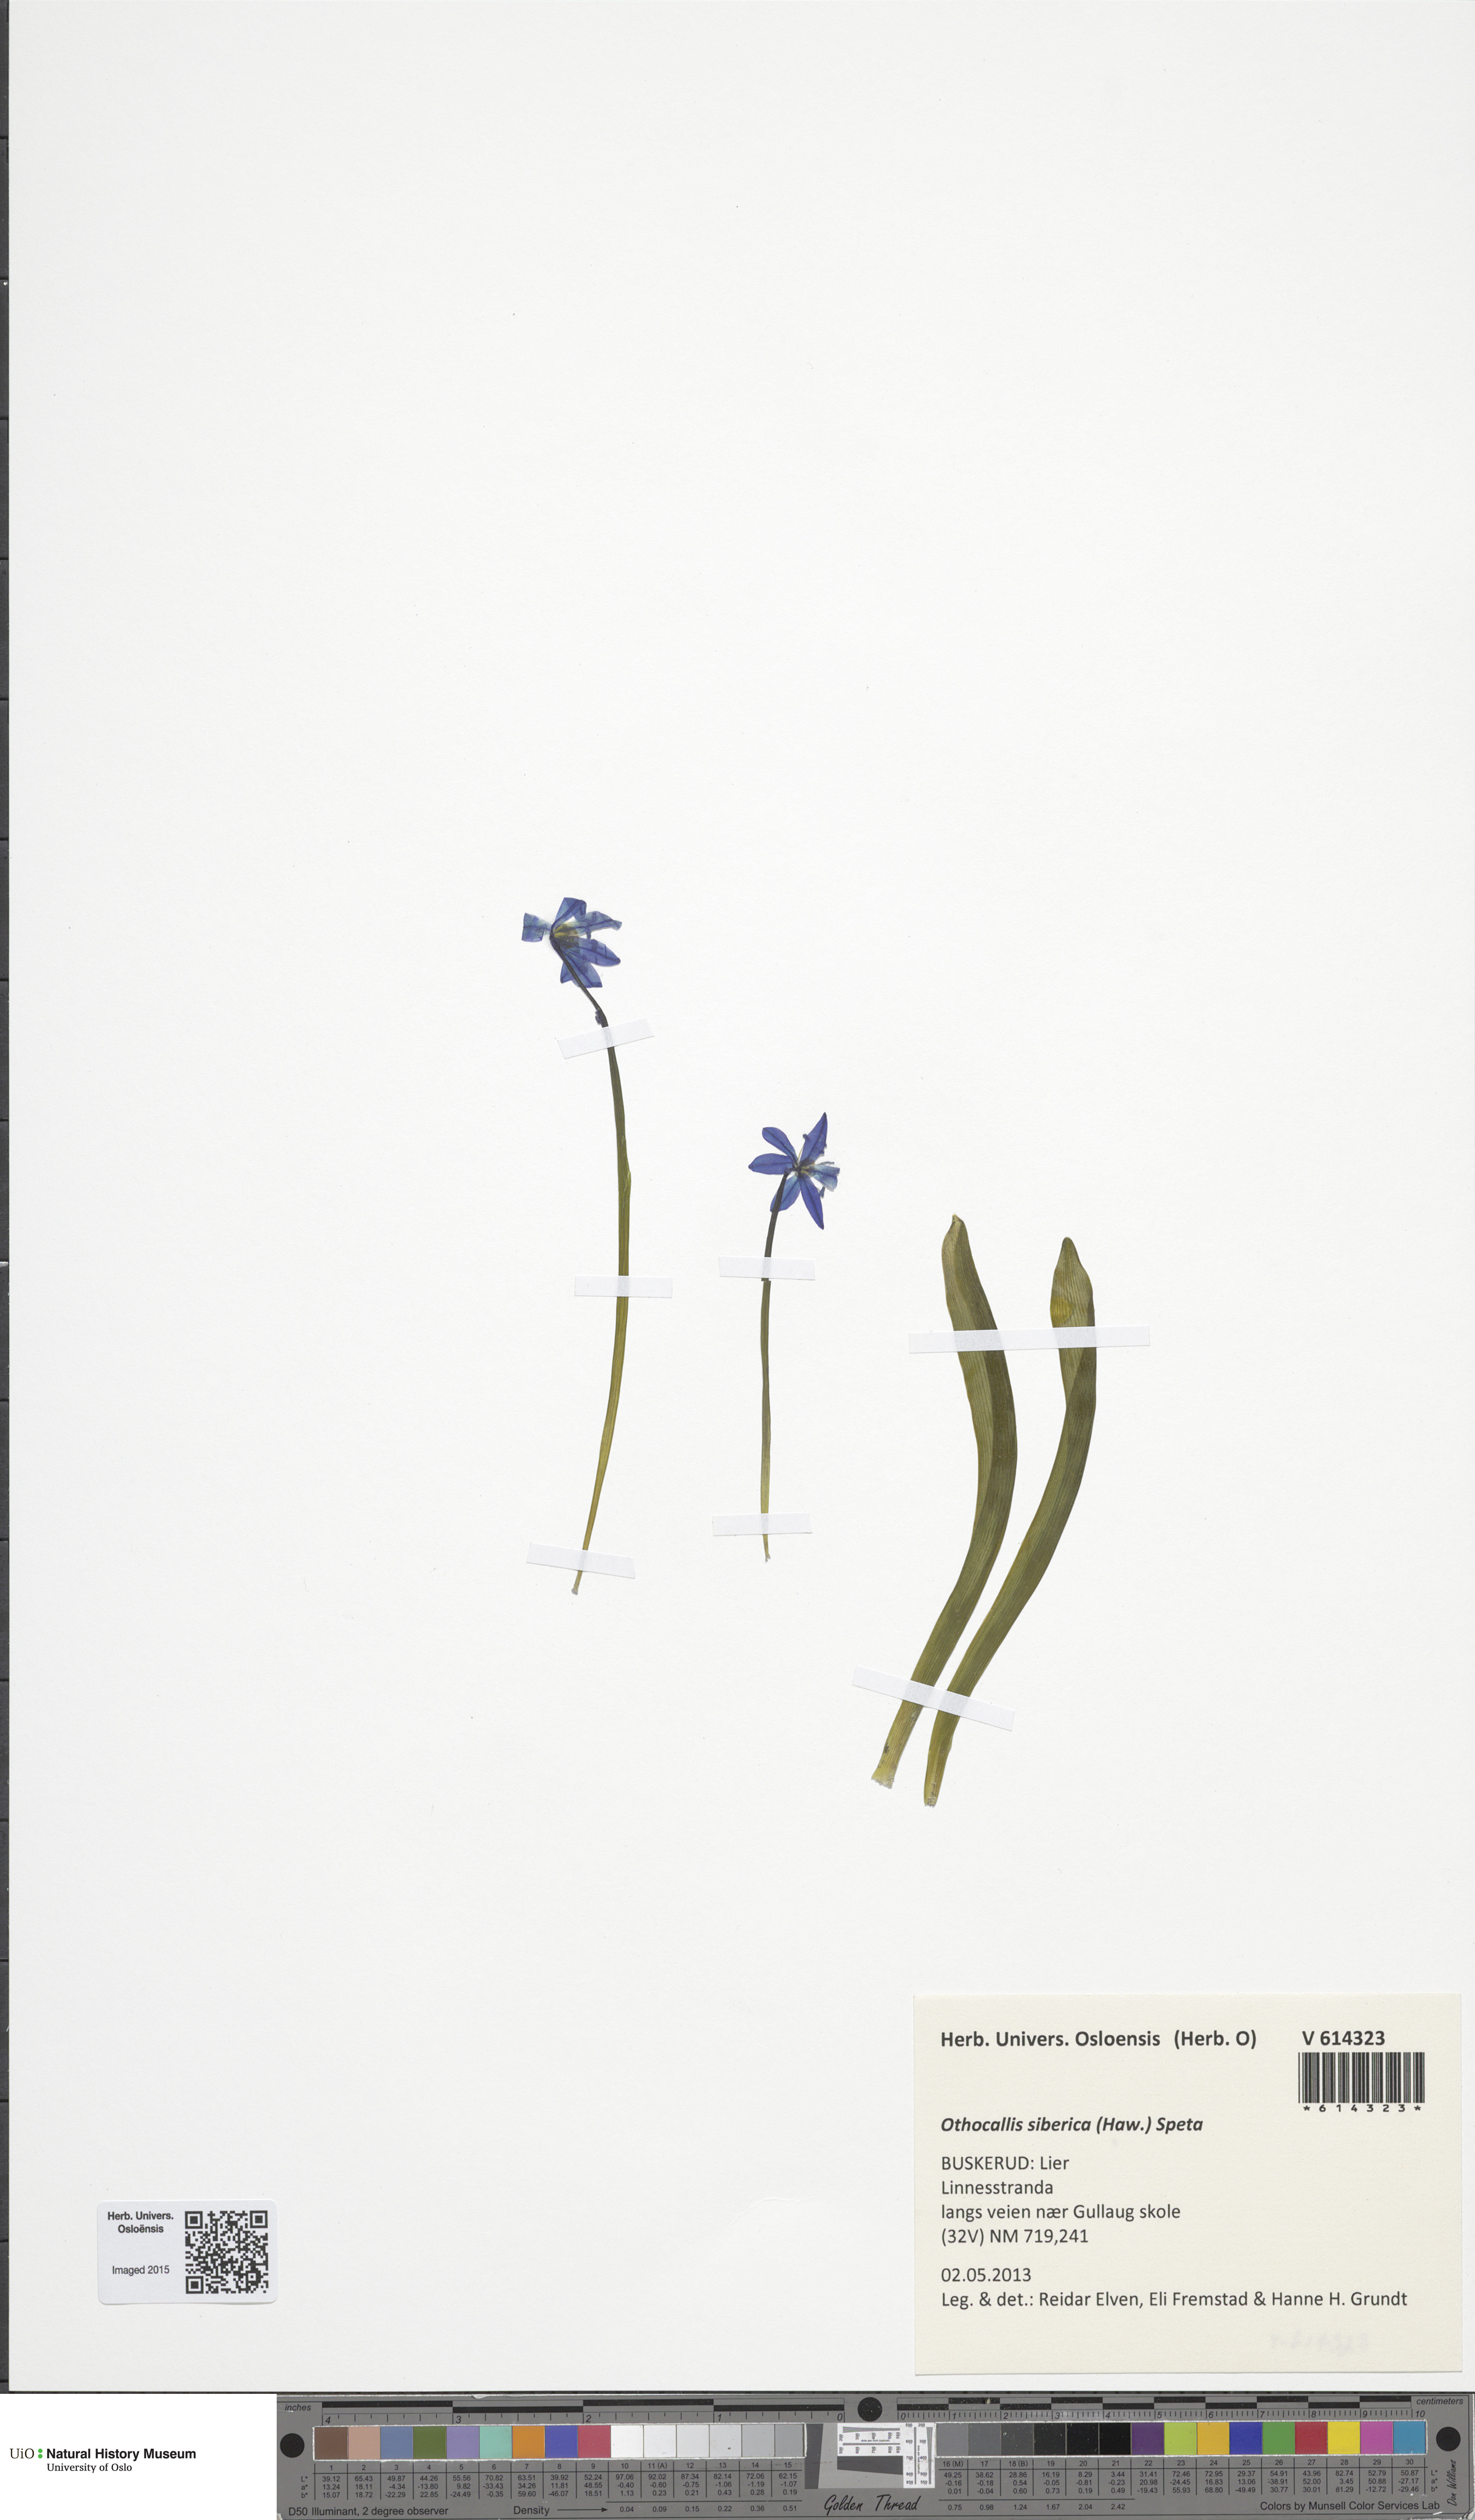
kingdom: Plantae
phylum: Tracheophyta
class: Liliopsida
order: Asparagales
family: Asparagaceae
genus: Scilla
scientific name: Scilla siberica
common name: Siberian squill
